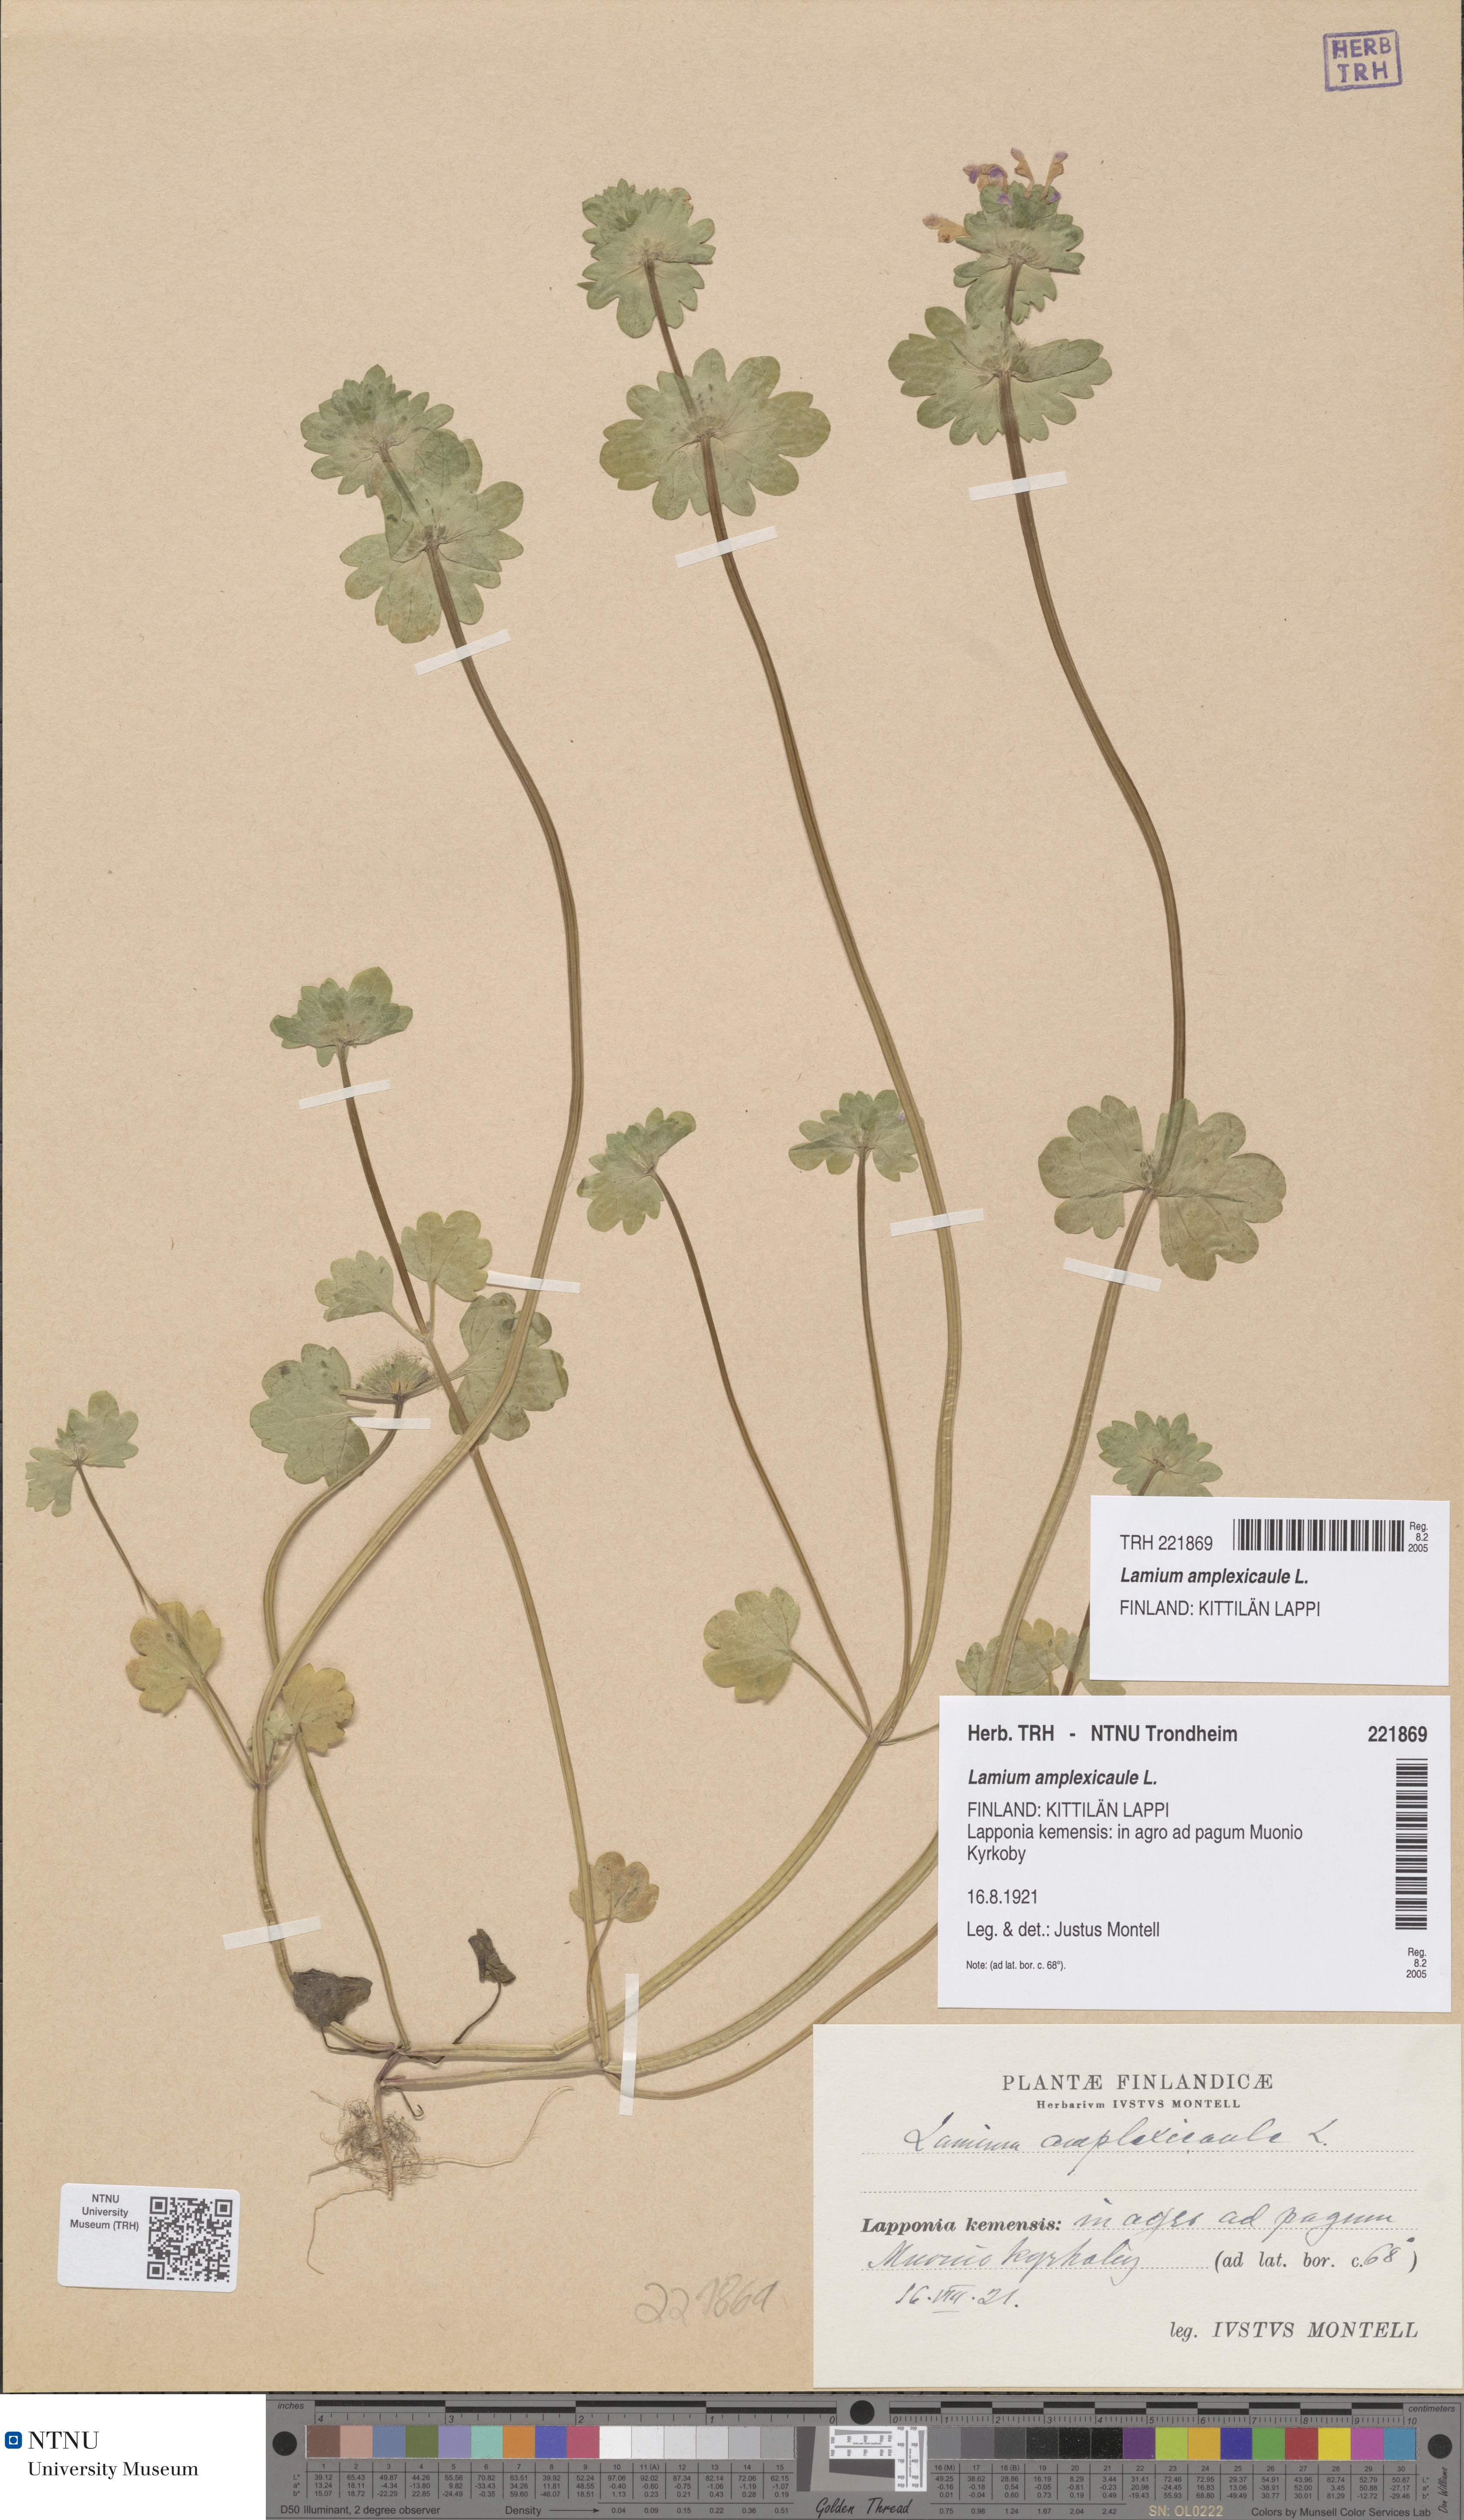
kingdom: Plantae
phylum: Tracheophyta
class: Magnoliopsida
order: Lamiales
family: Lamiaceae
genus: Lamium
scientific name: Lamium amplexicaule
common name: Henbit dead-nettle
